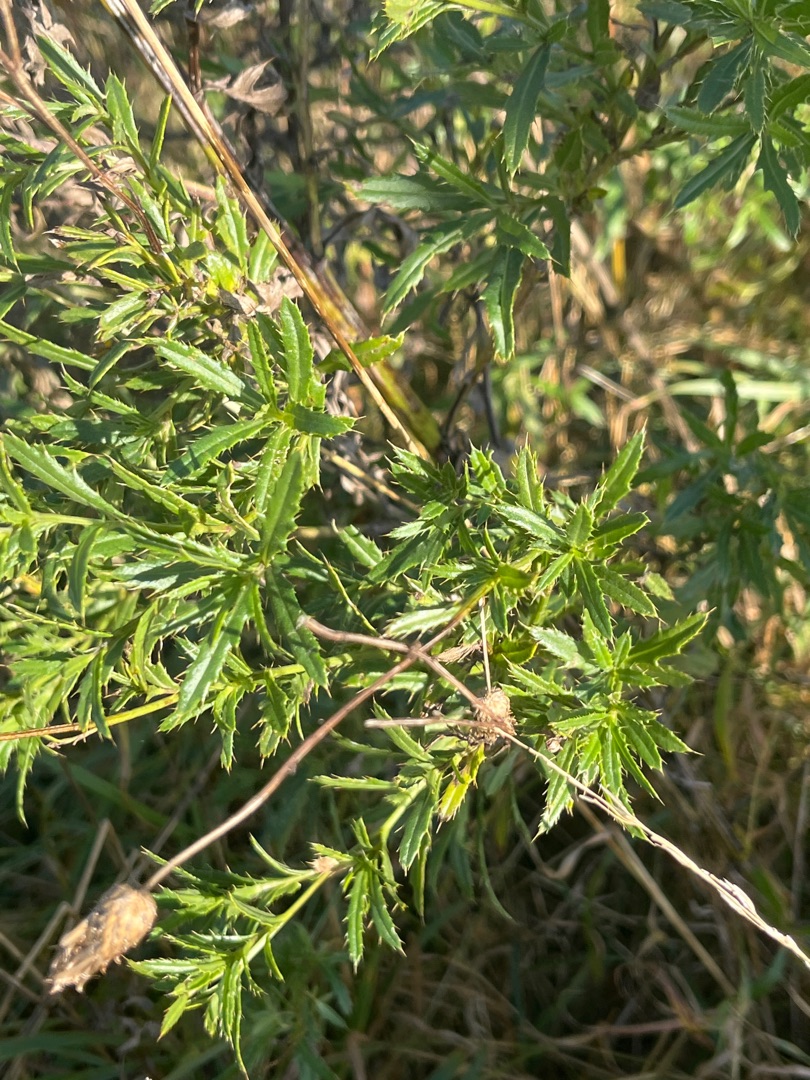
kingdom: Plantae
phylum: Tracheophyta
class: Magnoliopsida
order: Asterales
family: Asteraceae
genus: Cirsium
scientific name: Cirsium arvense
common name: Ager-tidsel
